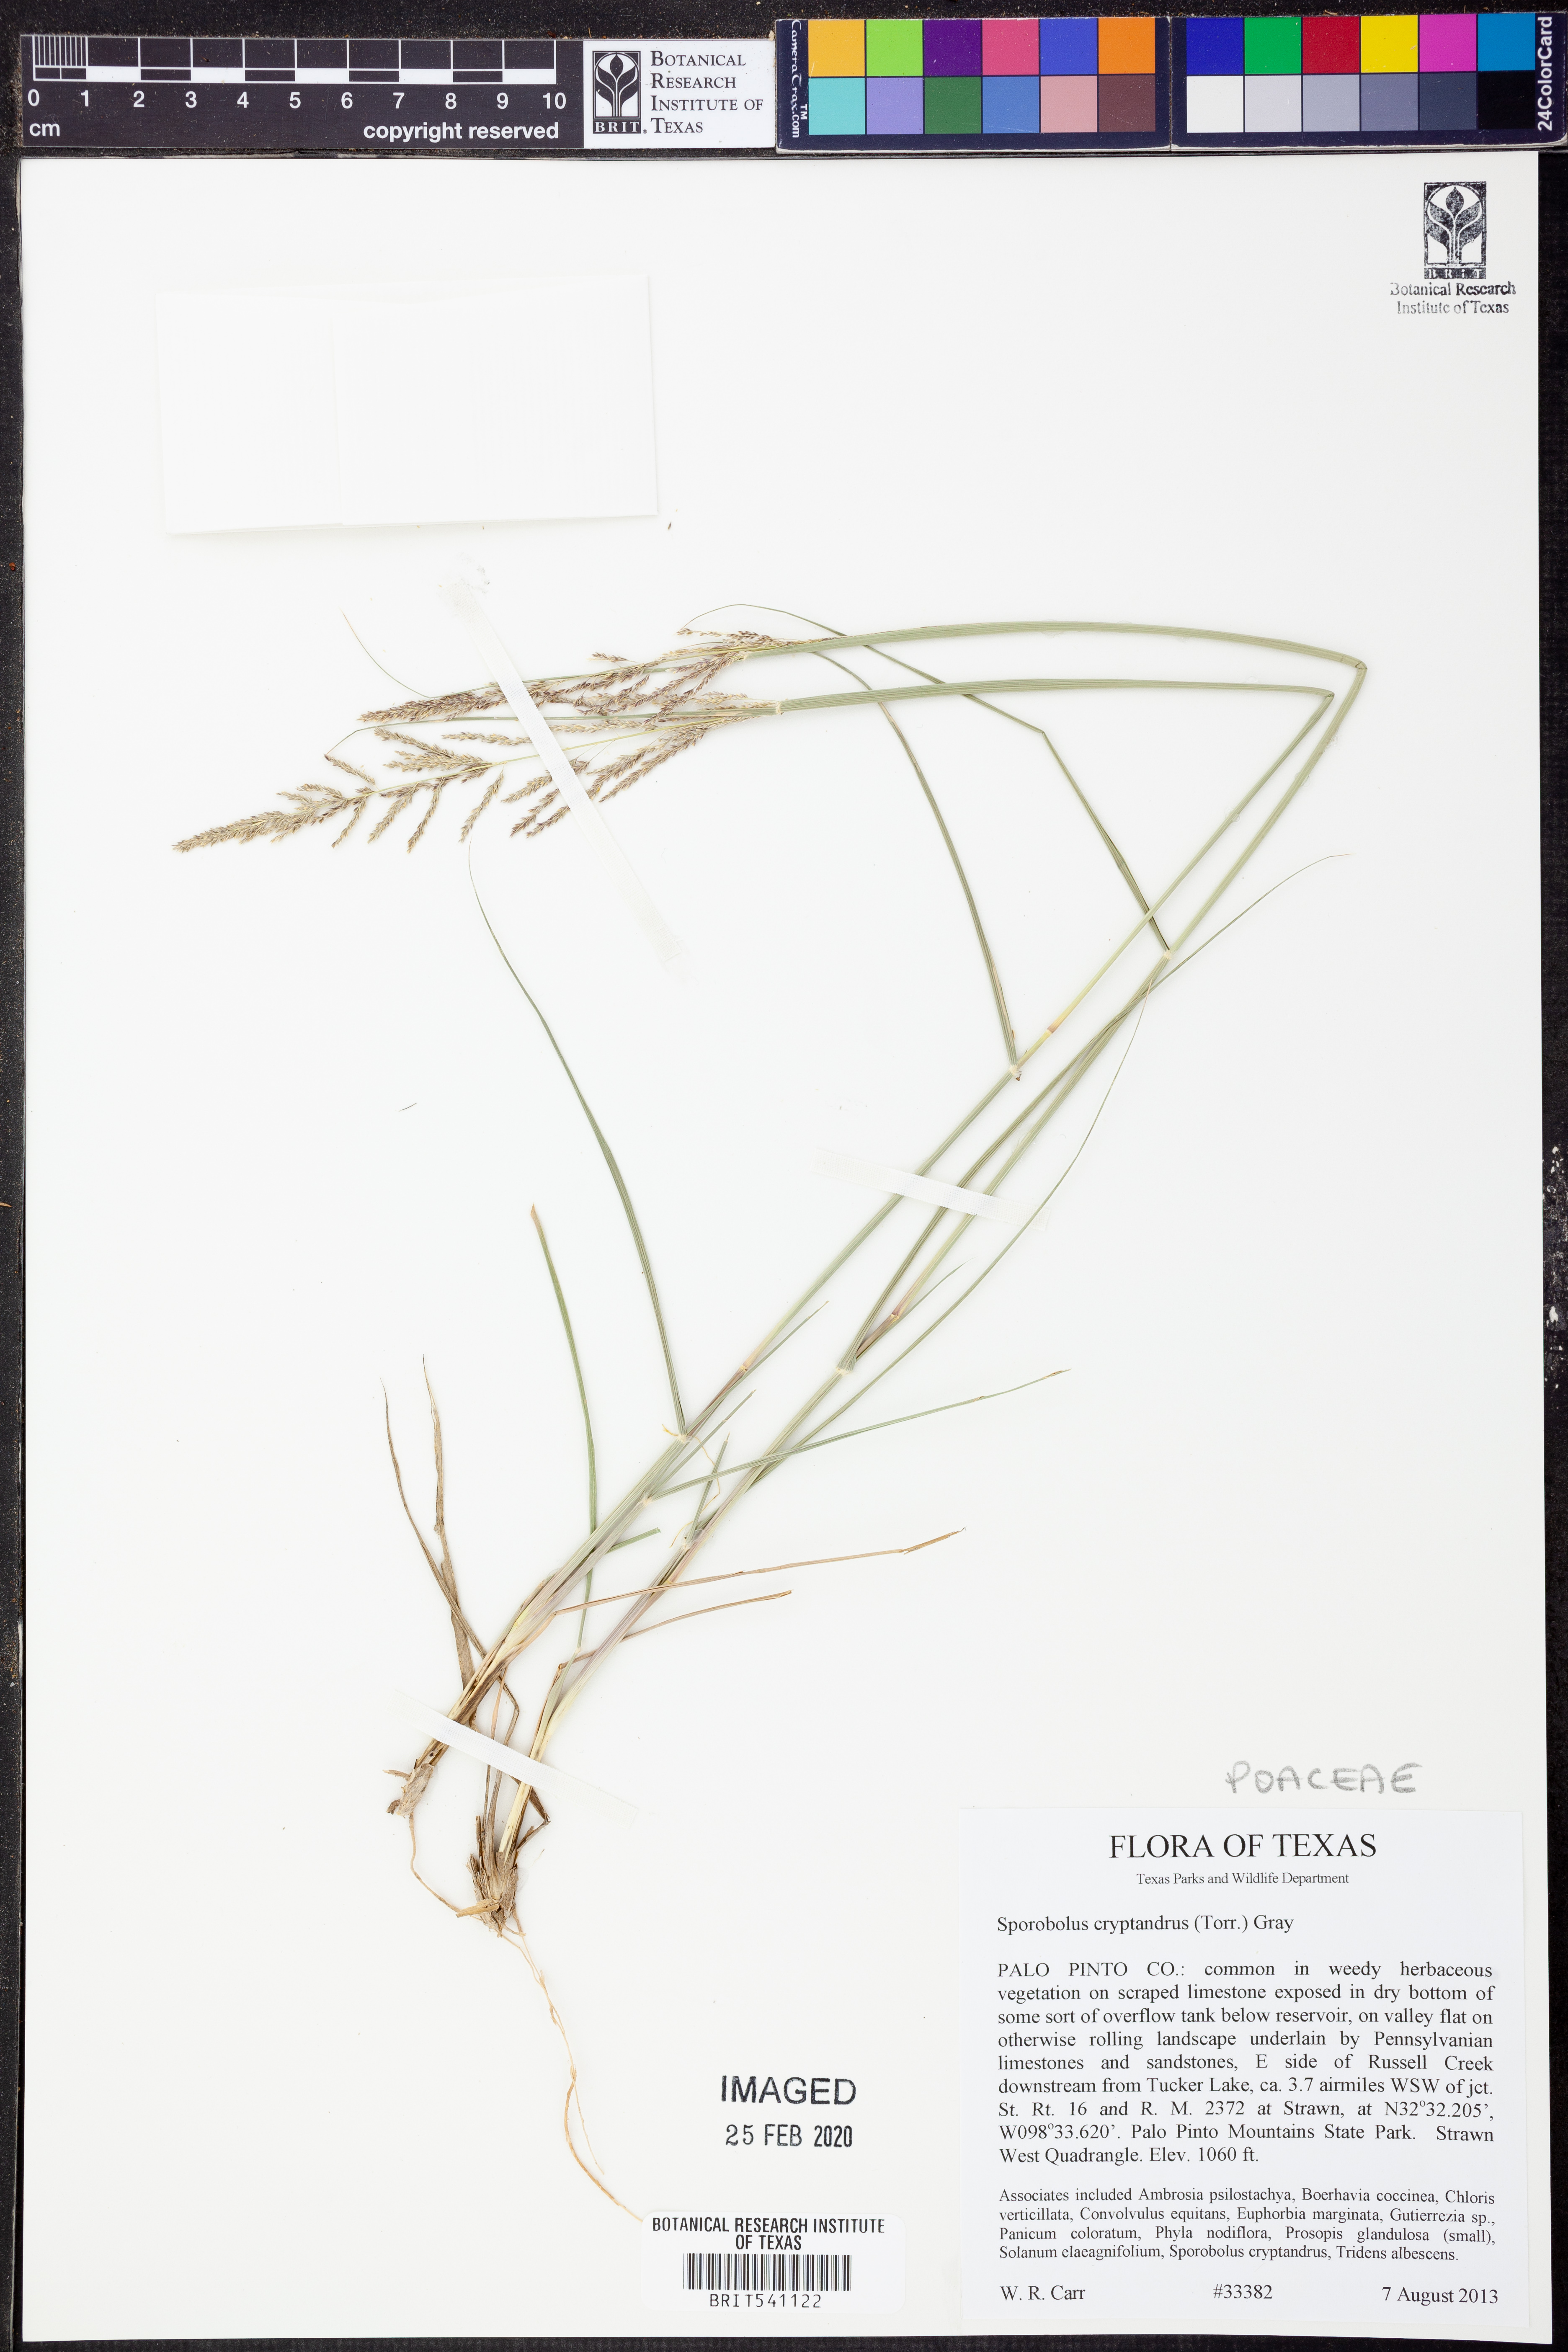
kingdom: Plantae
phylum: Tracheophyta
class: Liliopsida
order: Poales
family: Poaceae
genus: Sporobolus
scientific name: Sporobolus cryptandrus
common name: Sand dropseed
